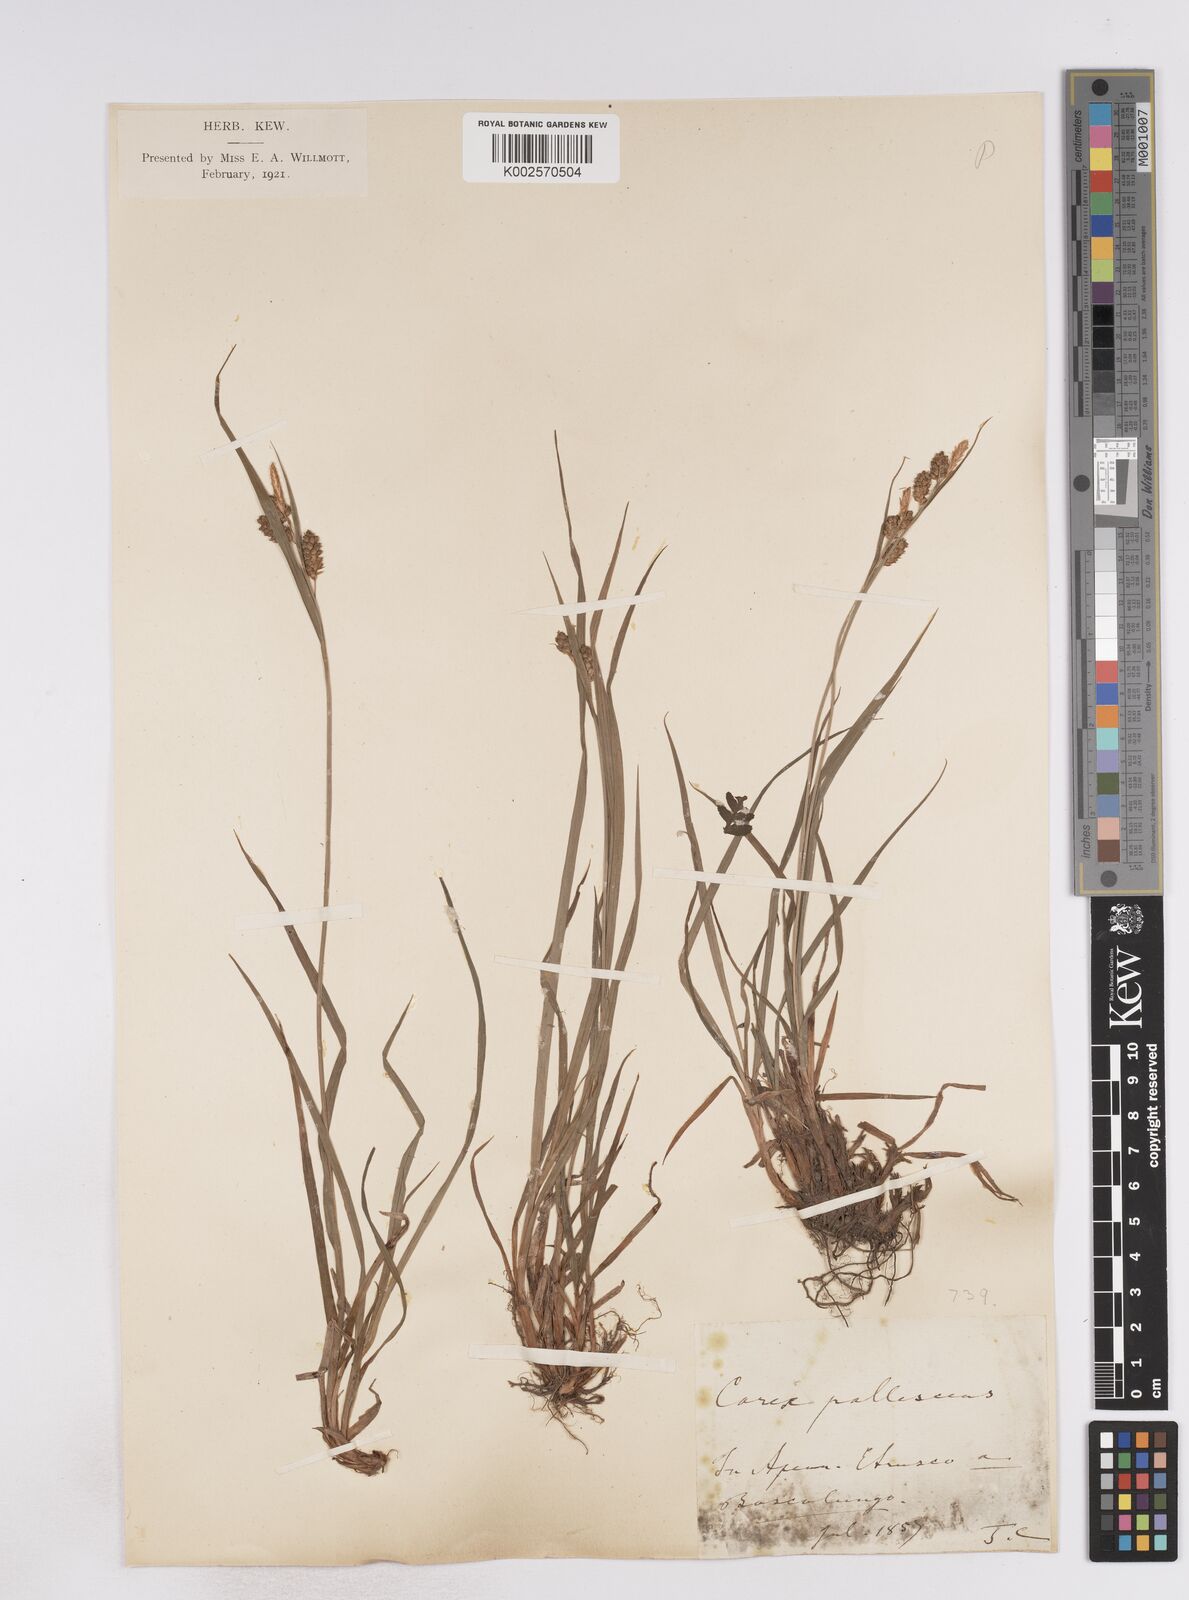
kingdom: Plantae
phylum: Tracheophyta
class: Liliopsida
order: Poales
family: Cyperaceae
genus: Carex
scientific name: Carex pallescens
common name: Pale sedge
